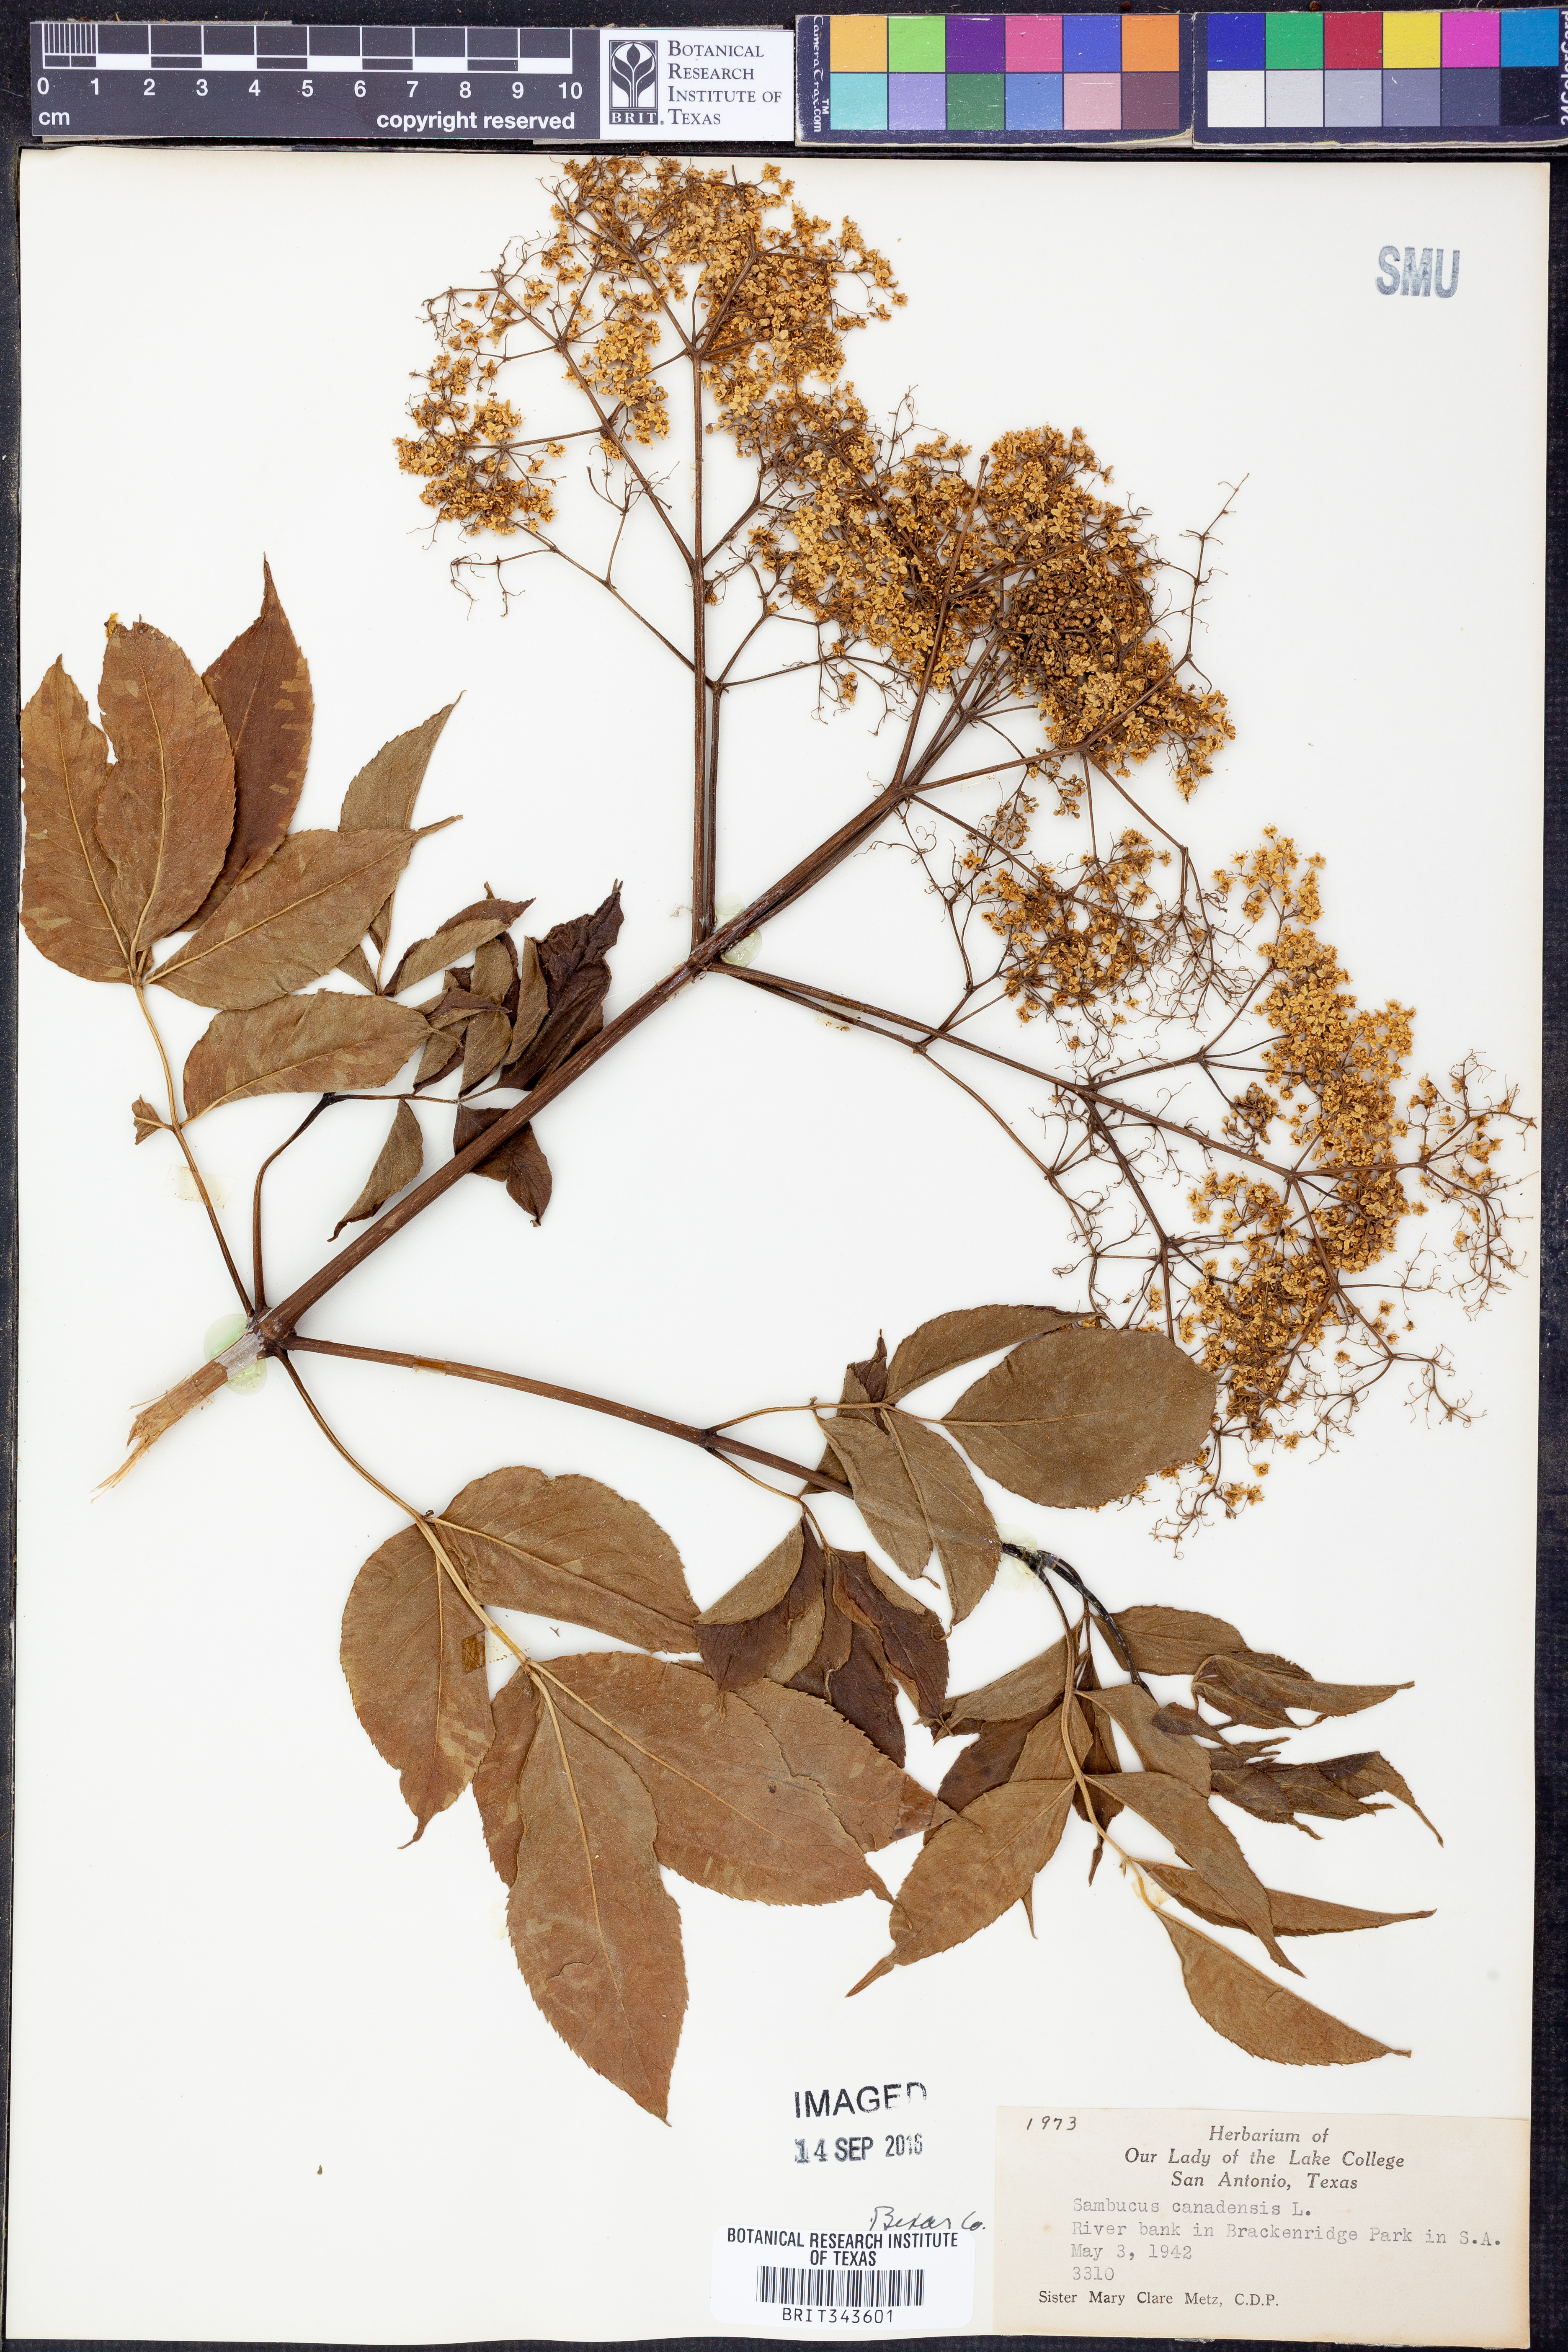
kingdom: Plantae
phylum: Tracheophyta
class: Magnoliopsida
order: Dipsacales
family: Viburnaceae
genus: Sambucus
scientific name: Sambucus canadensis
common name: American elder
